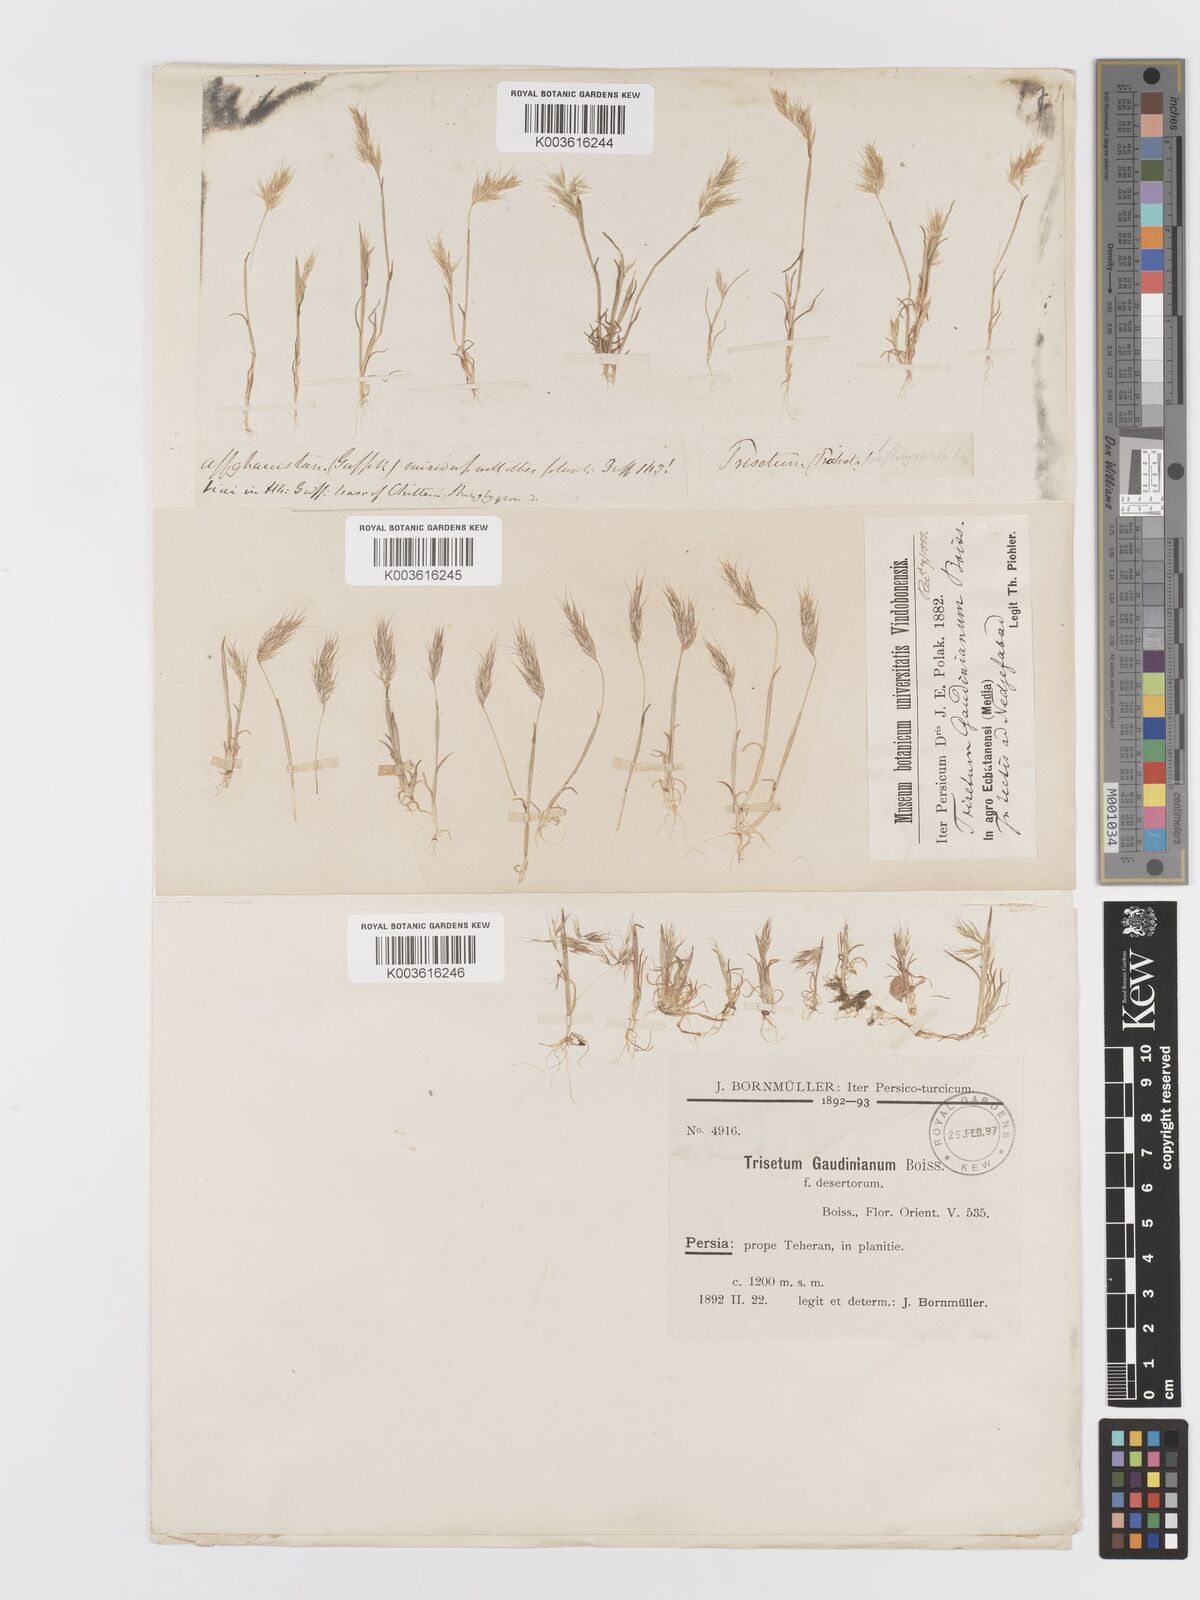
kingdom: Plantae
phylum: Tracheophyta
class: Liliopsida
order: Poales
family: Poaceae
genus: Trisetaria
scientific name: Trisetaria loeflingiana
